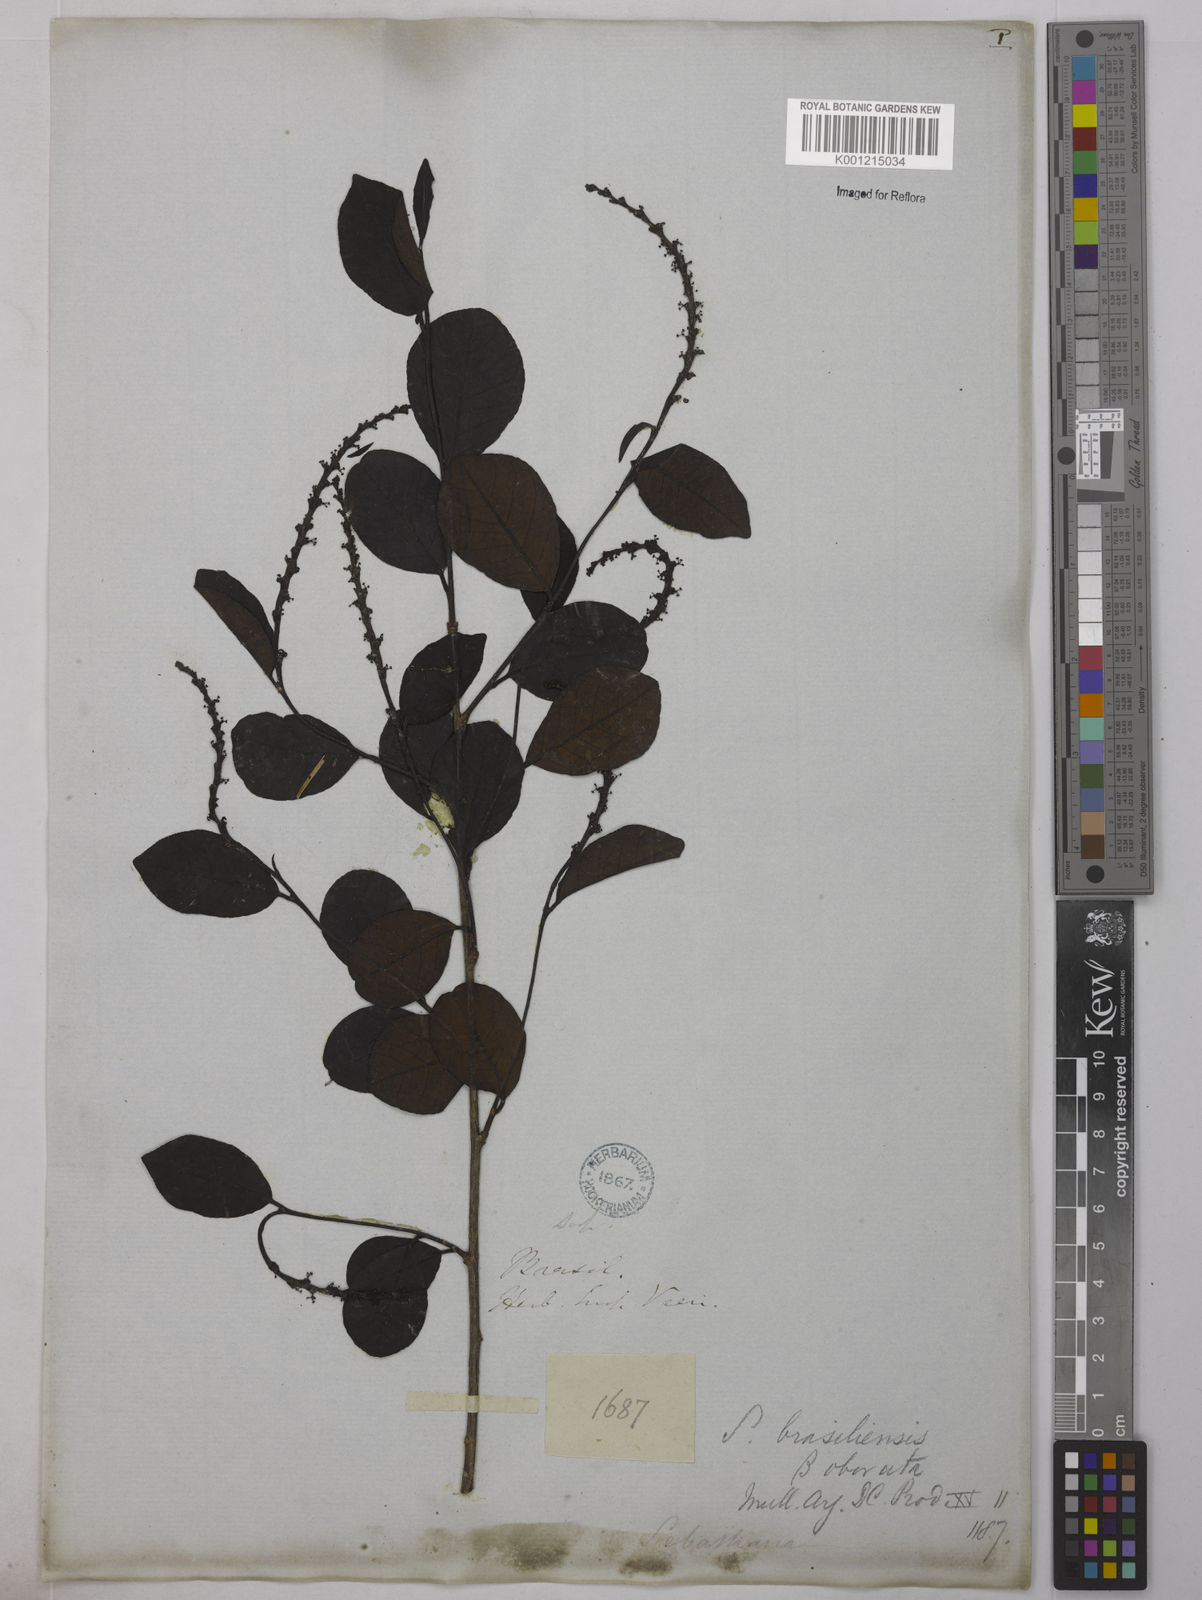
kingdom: Plantae
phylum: Tracheophyta
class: Magnoliopsida
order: Malpighiales
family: Euphorbiaceae
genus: Sebastiania
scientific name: Sebastiania brasiliensis
